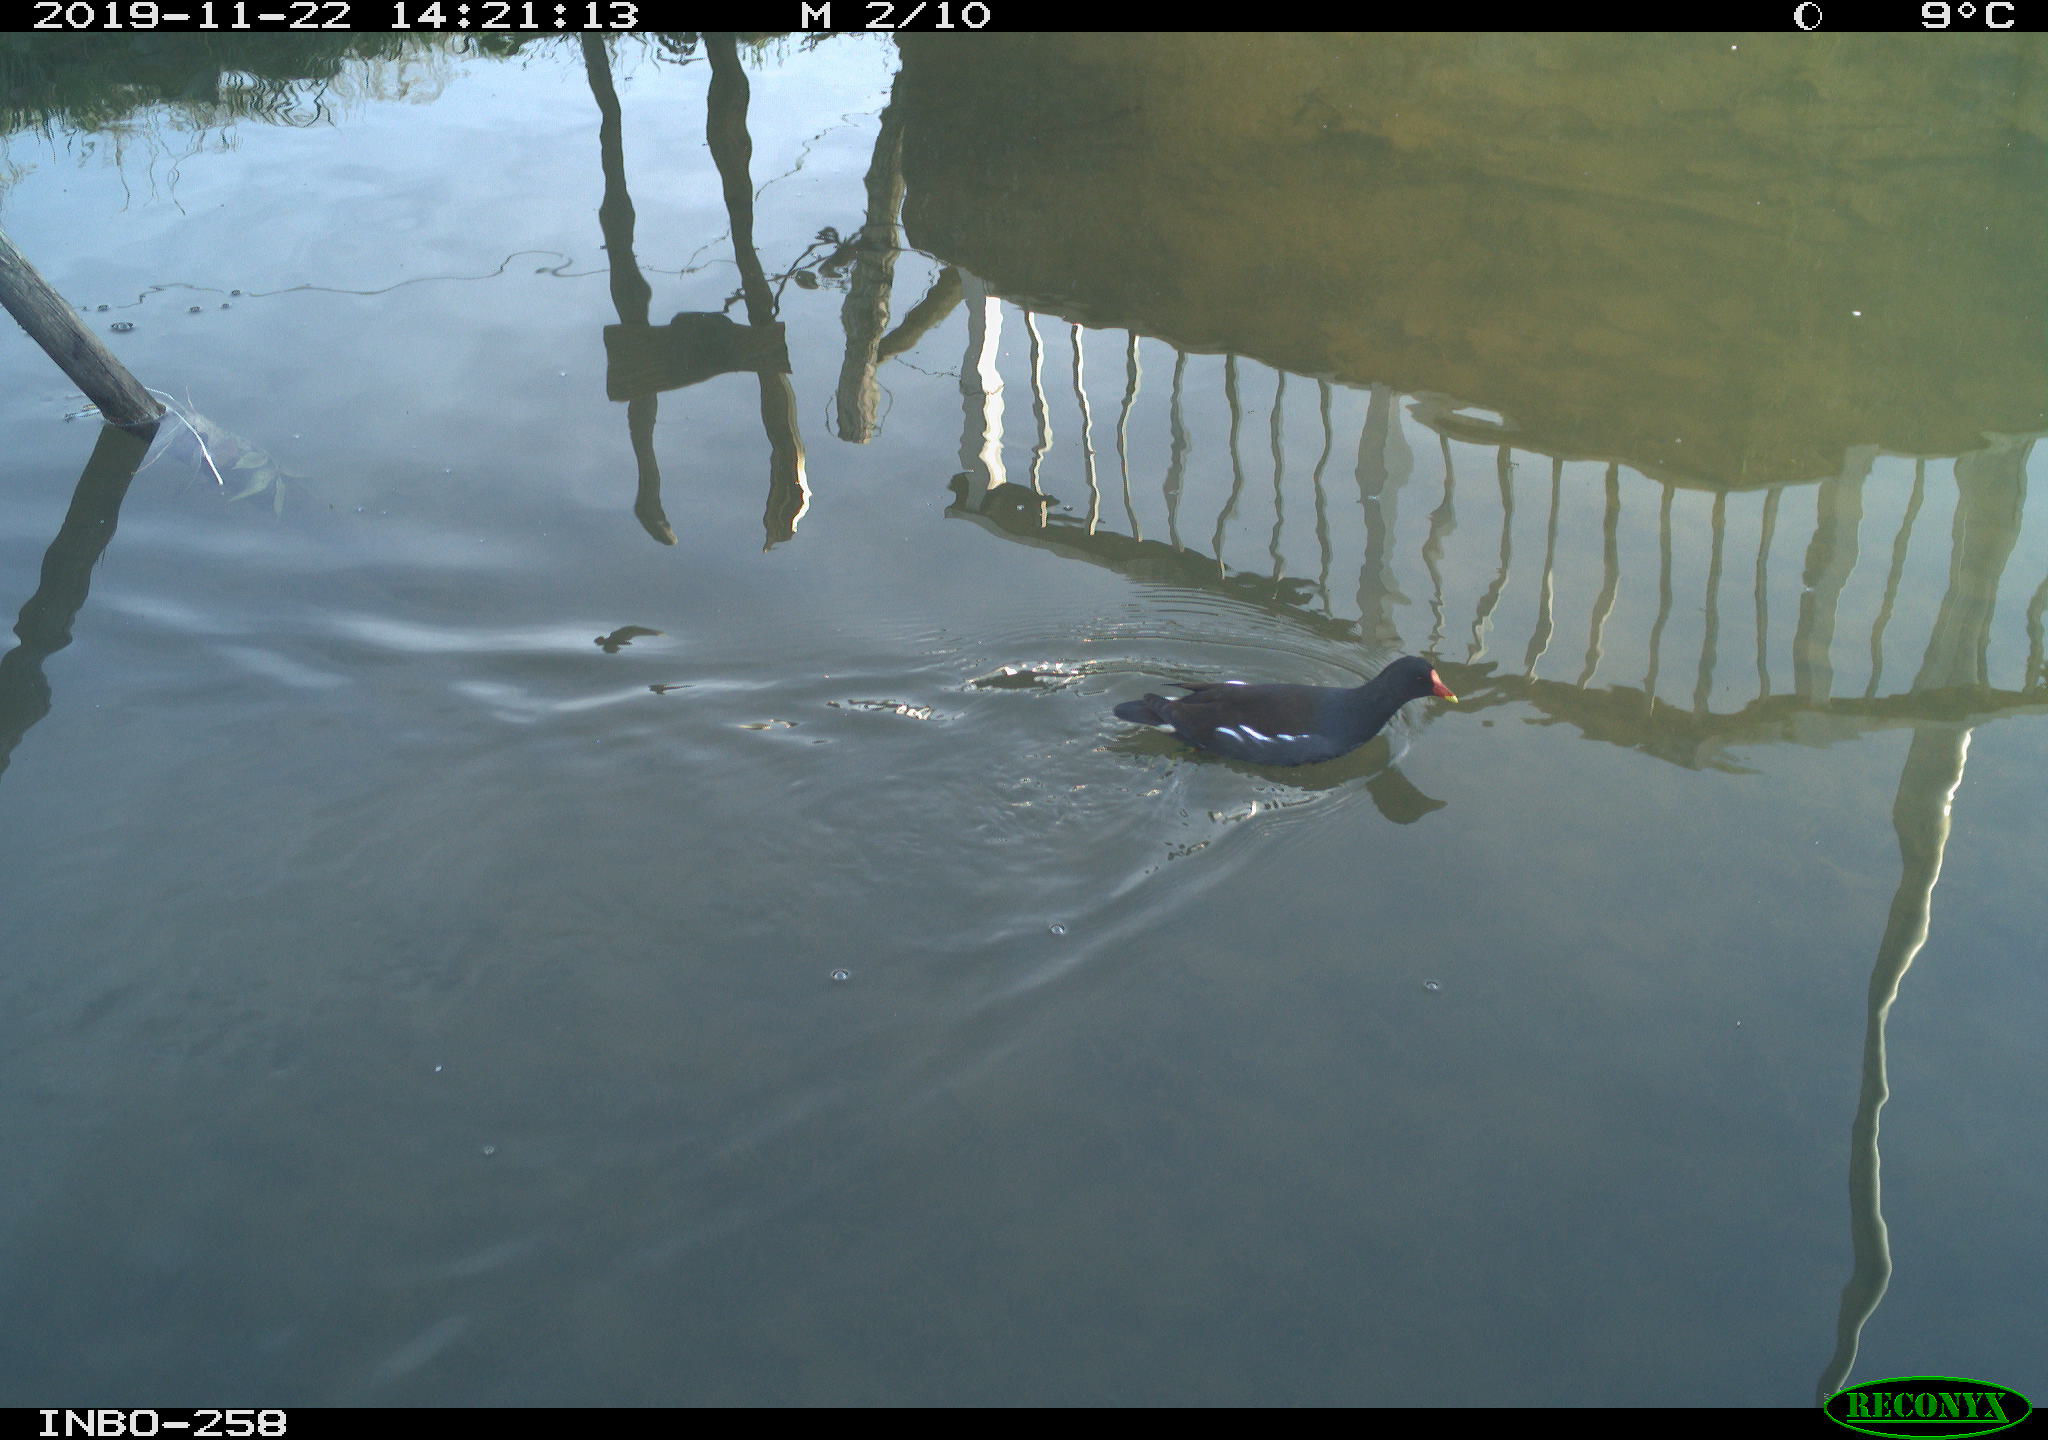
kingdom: Animalia
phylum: Chordata
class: Aves
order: Gruiformes
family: Rallidae
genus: Gallinula
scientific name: Gallinula chloropus
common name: Common moorhen
